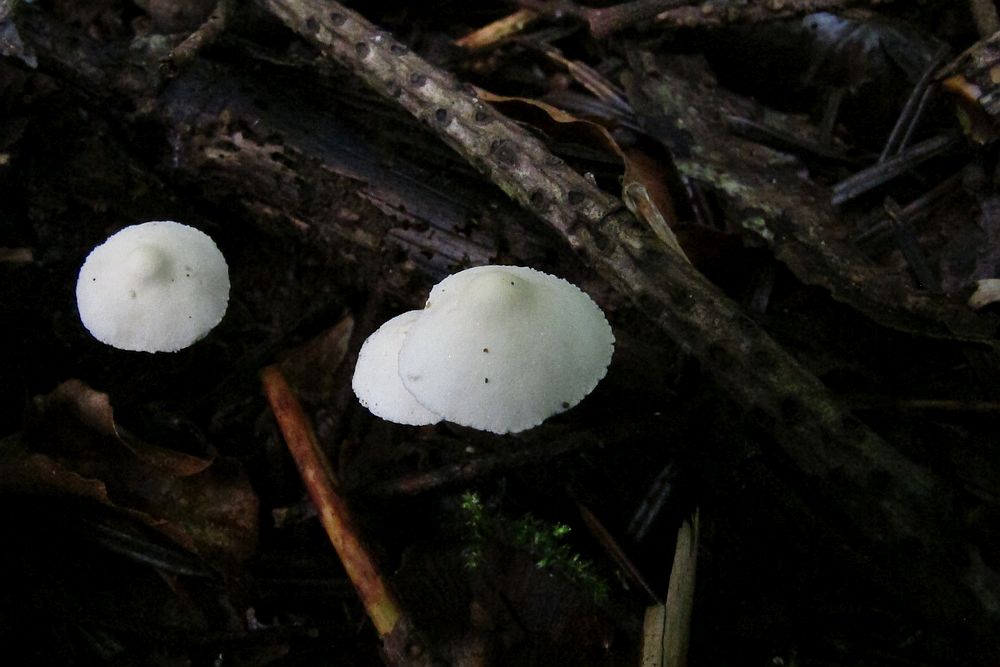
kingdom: Fungi
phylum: Basidiomycota
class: Agaricomycetes
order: Agaricales
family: Agaricaceae
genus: Cystolepiota
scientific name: Cystolepiota seminuda
